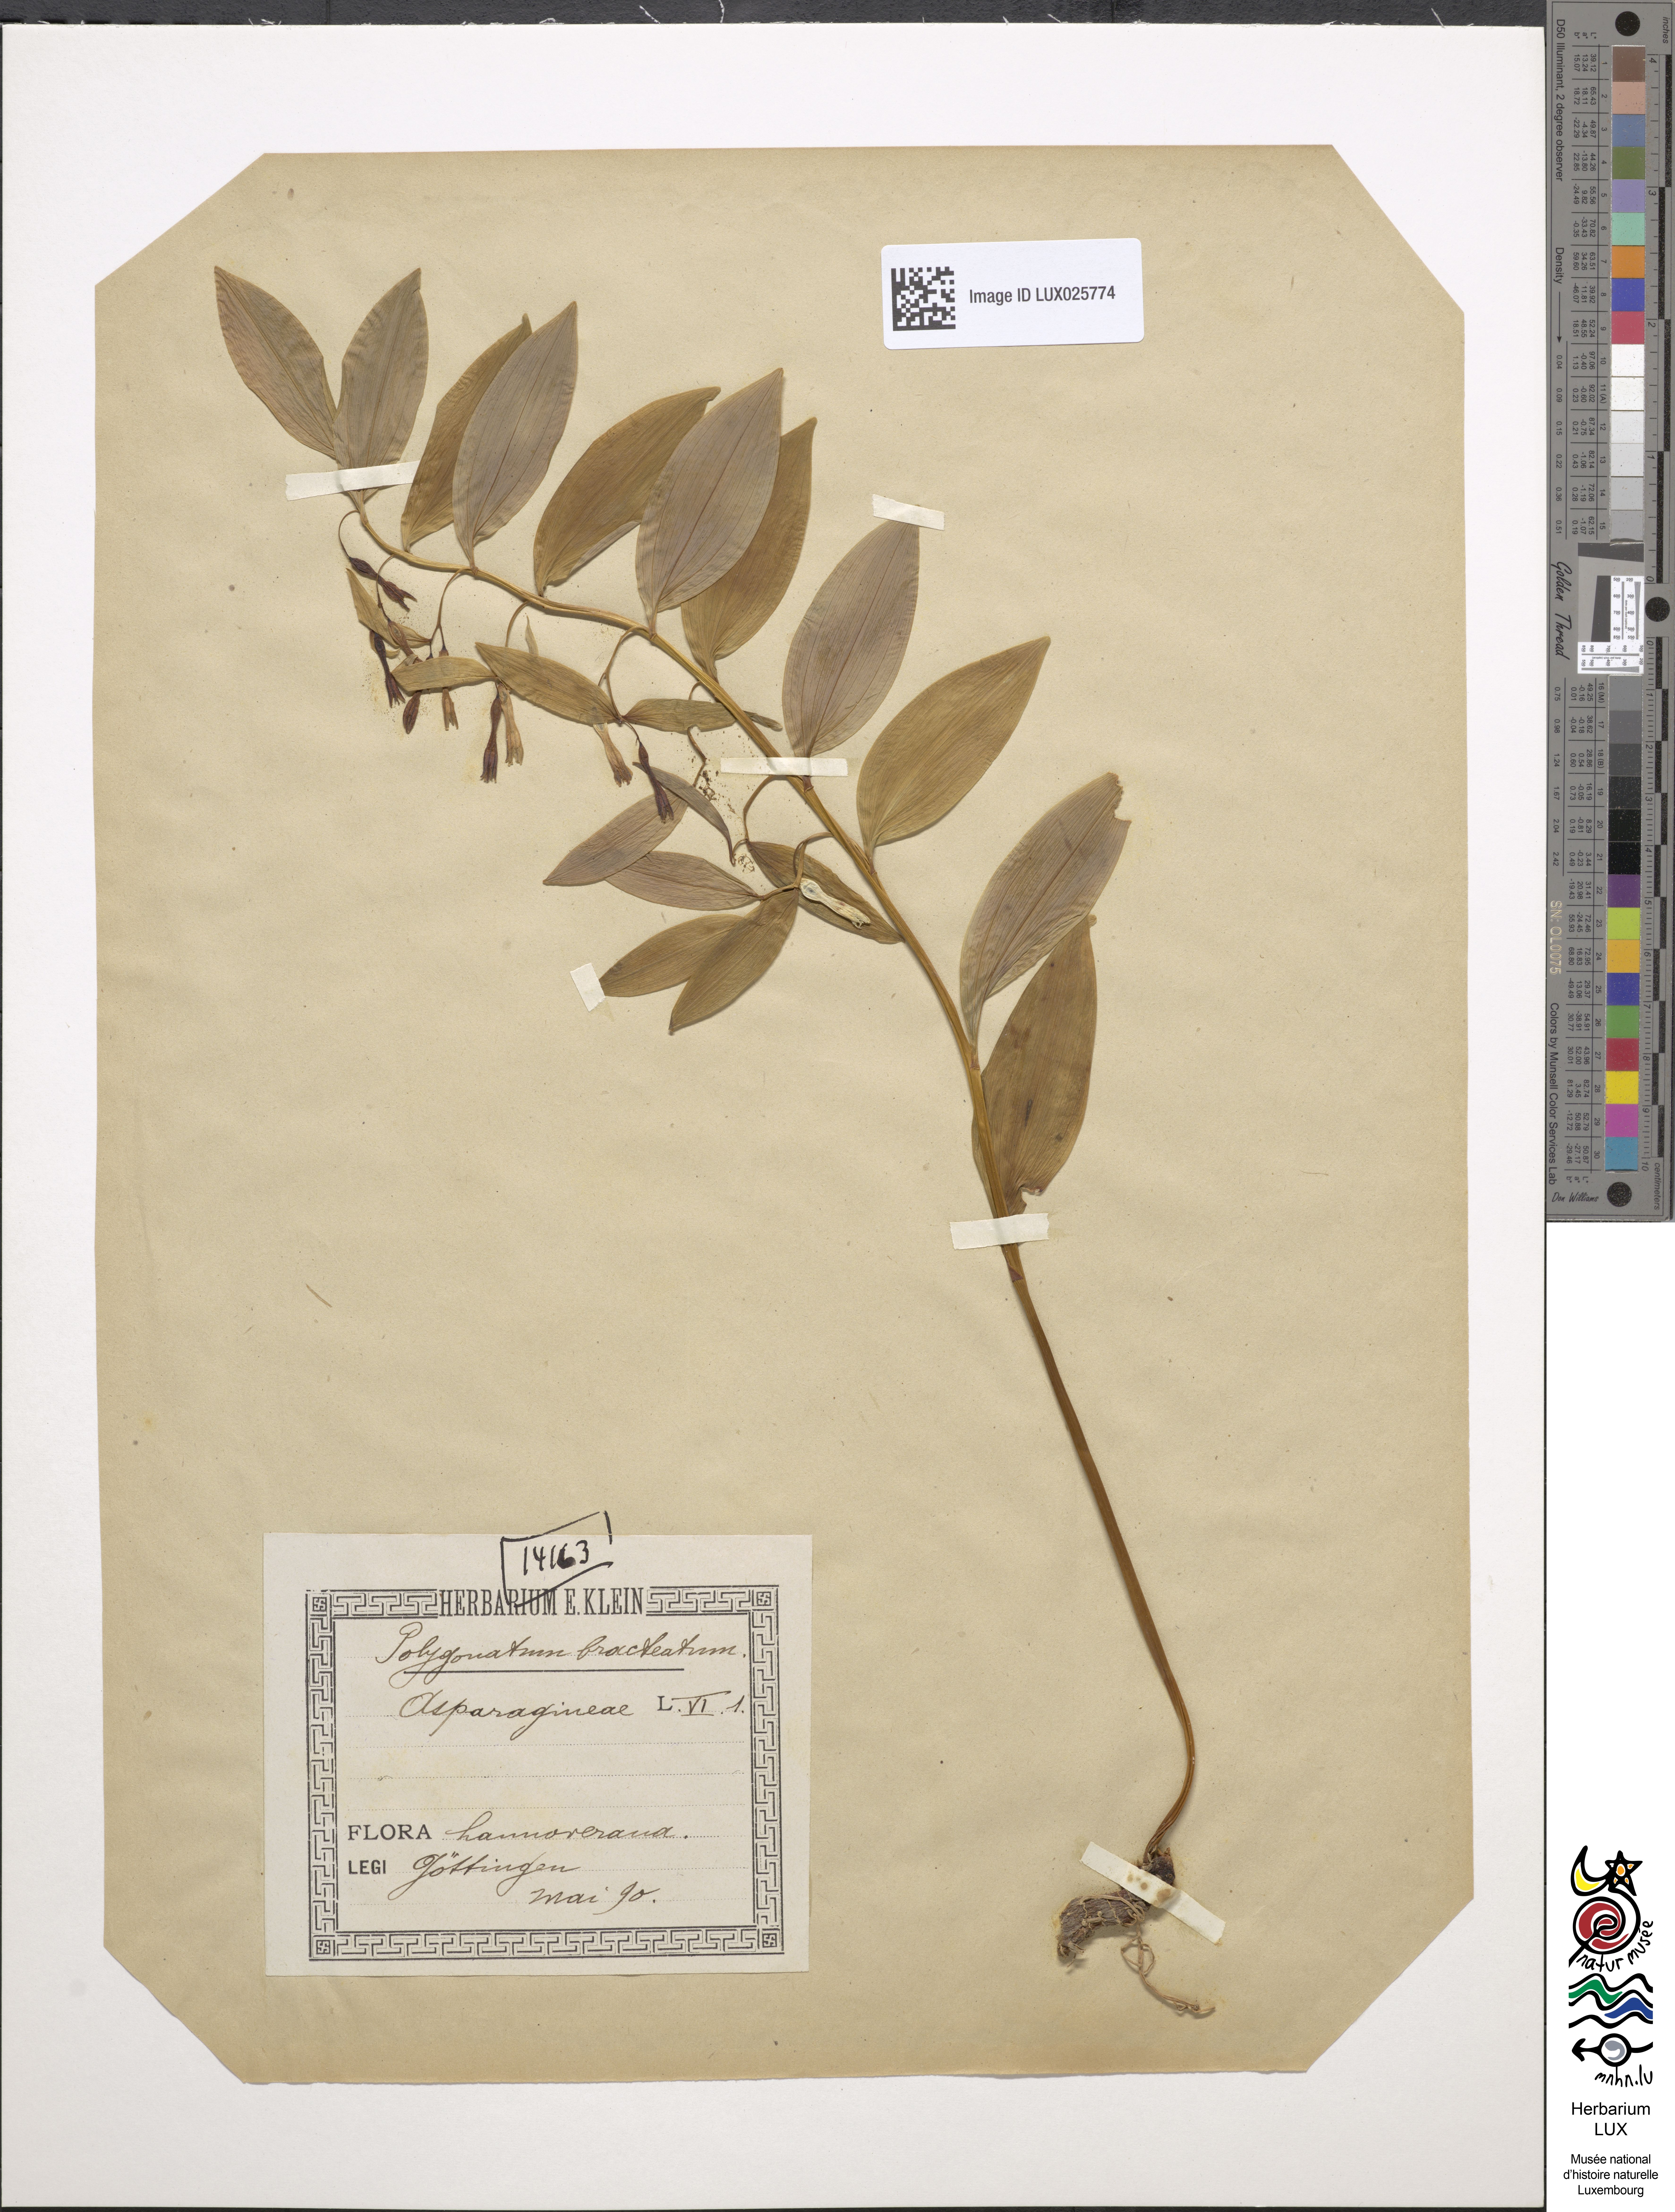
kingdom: Plantae
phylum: Tracheophyta
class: Liliopsida
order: Asparagales
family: Asparagaceae
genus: Polygonatum
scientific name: Polygonatum multiflorum
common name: Solomon's-seal
